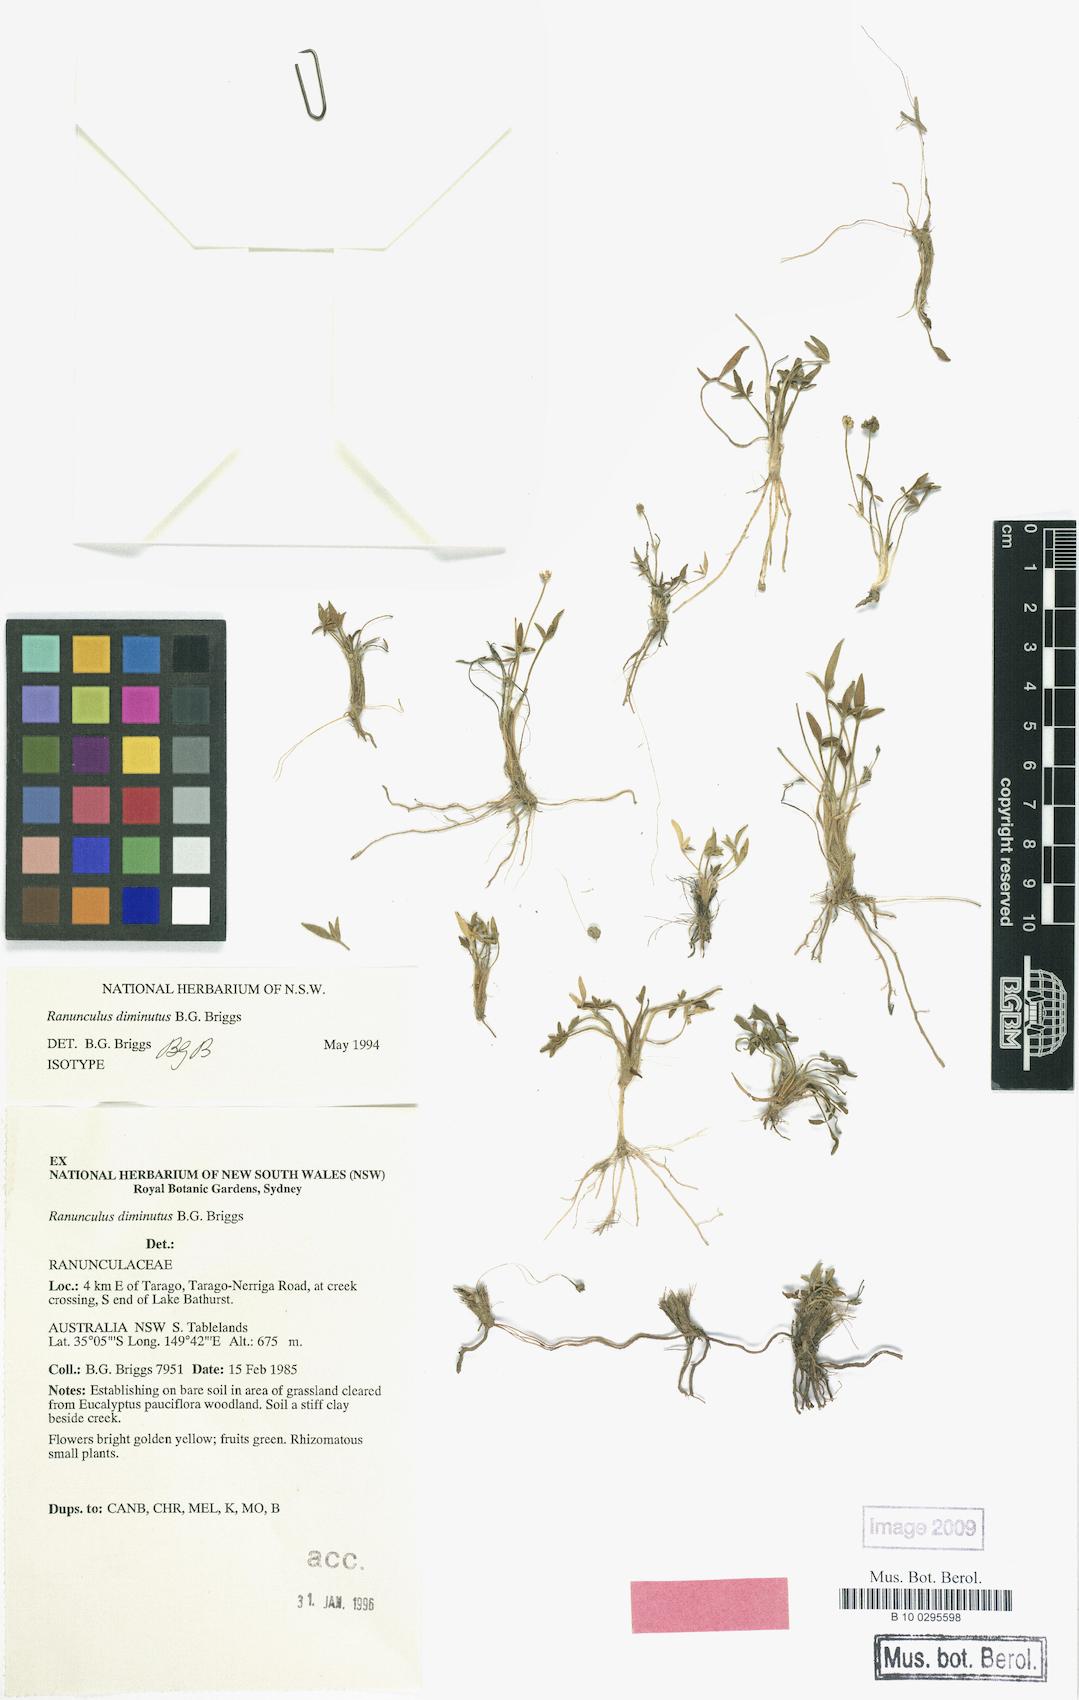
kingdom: Plantae
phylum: Tracheophyta
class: Magnoliopsida
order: Ranunculales
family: Ranunculaceae
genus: Ranunculus
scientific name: Ranunculus diminutus
